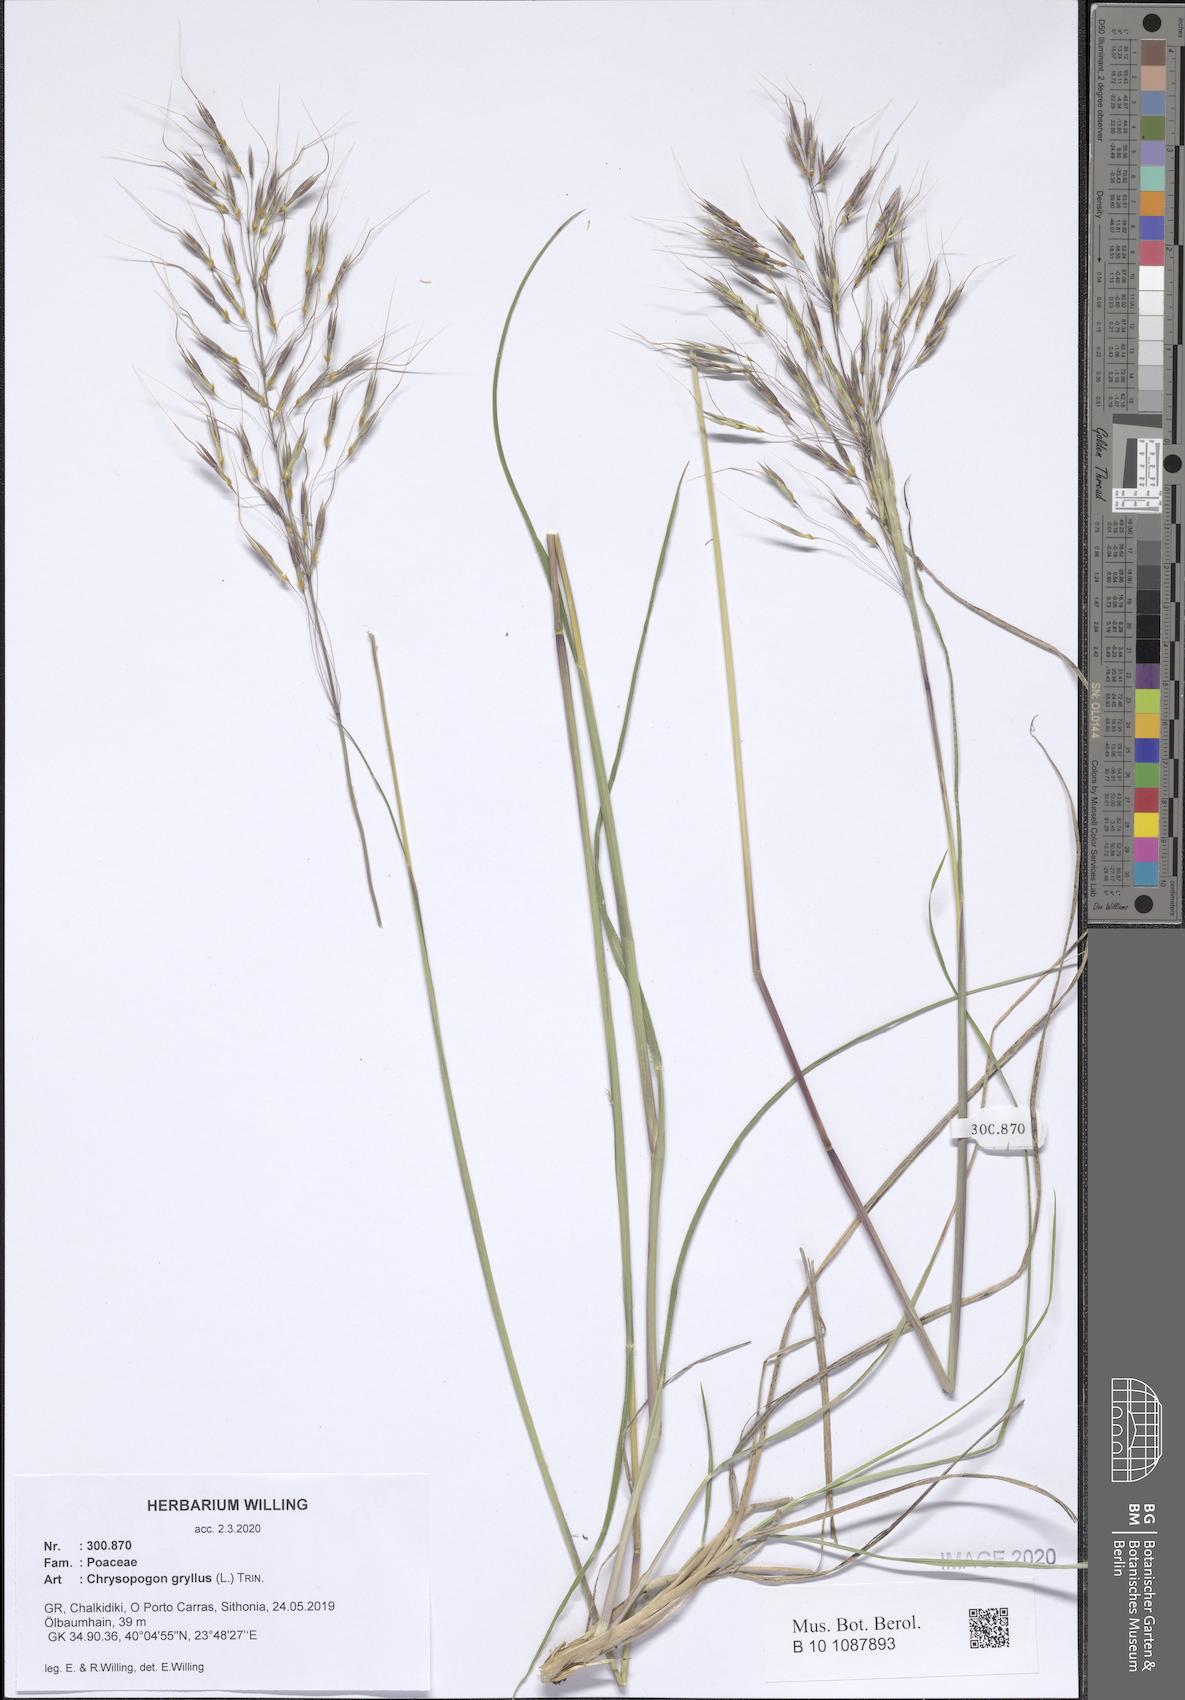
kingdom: Plantae
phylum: Tracheophyta
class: Liliopsida
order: Poales
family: Poaceae
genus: Chrysopogon
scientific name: Chrysopogon gryllus
